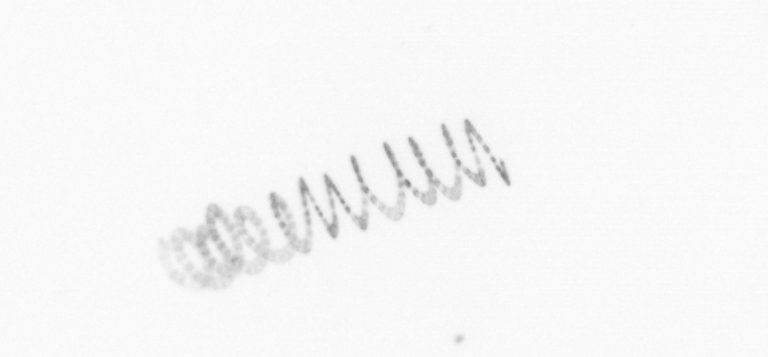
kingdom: Chromista
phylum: Ochrophyta
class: Bacillariophyceae
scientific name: Bacillariophyceae
